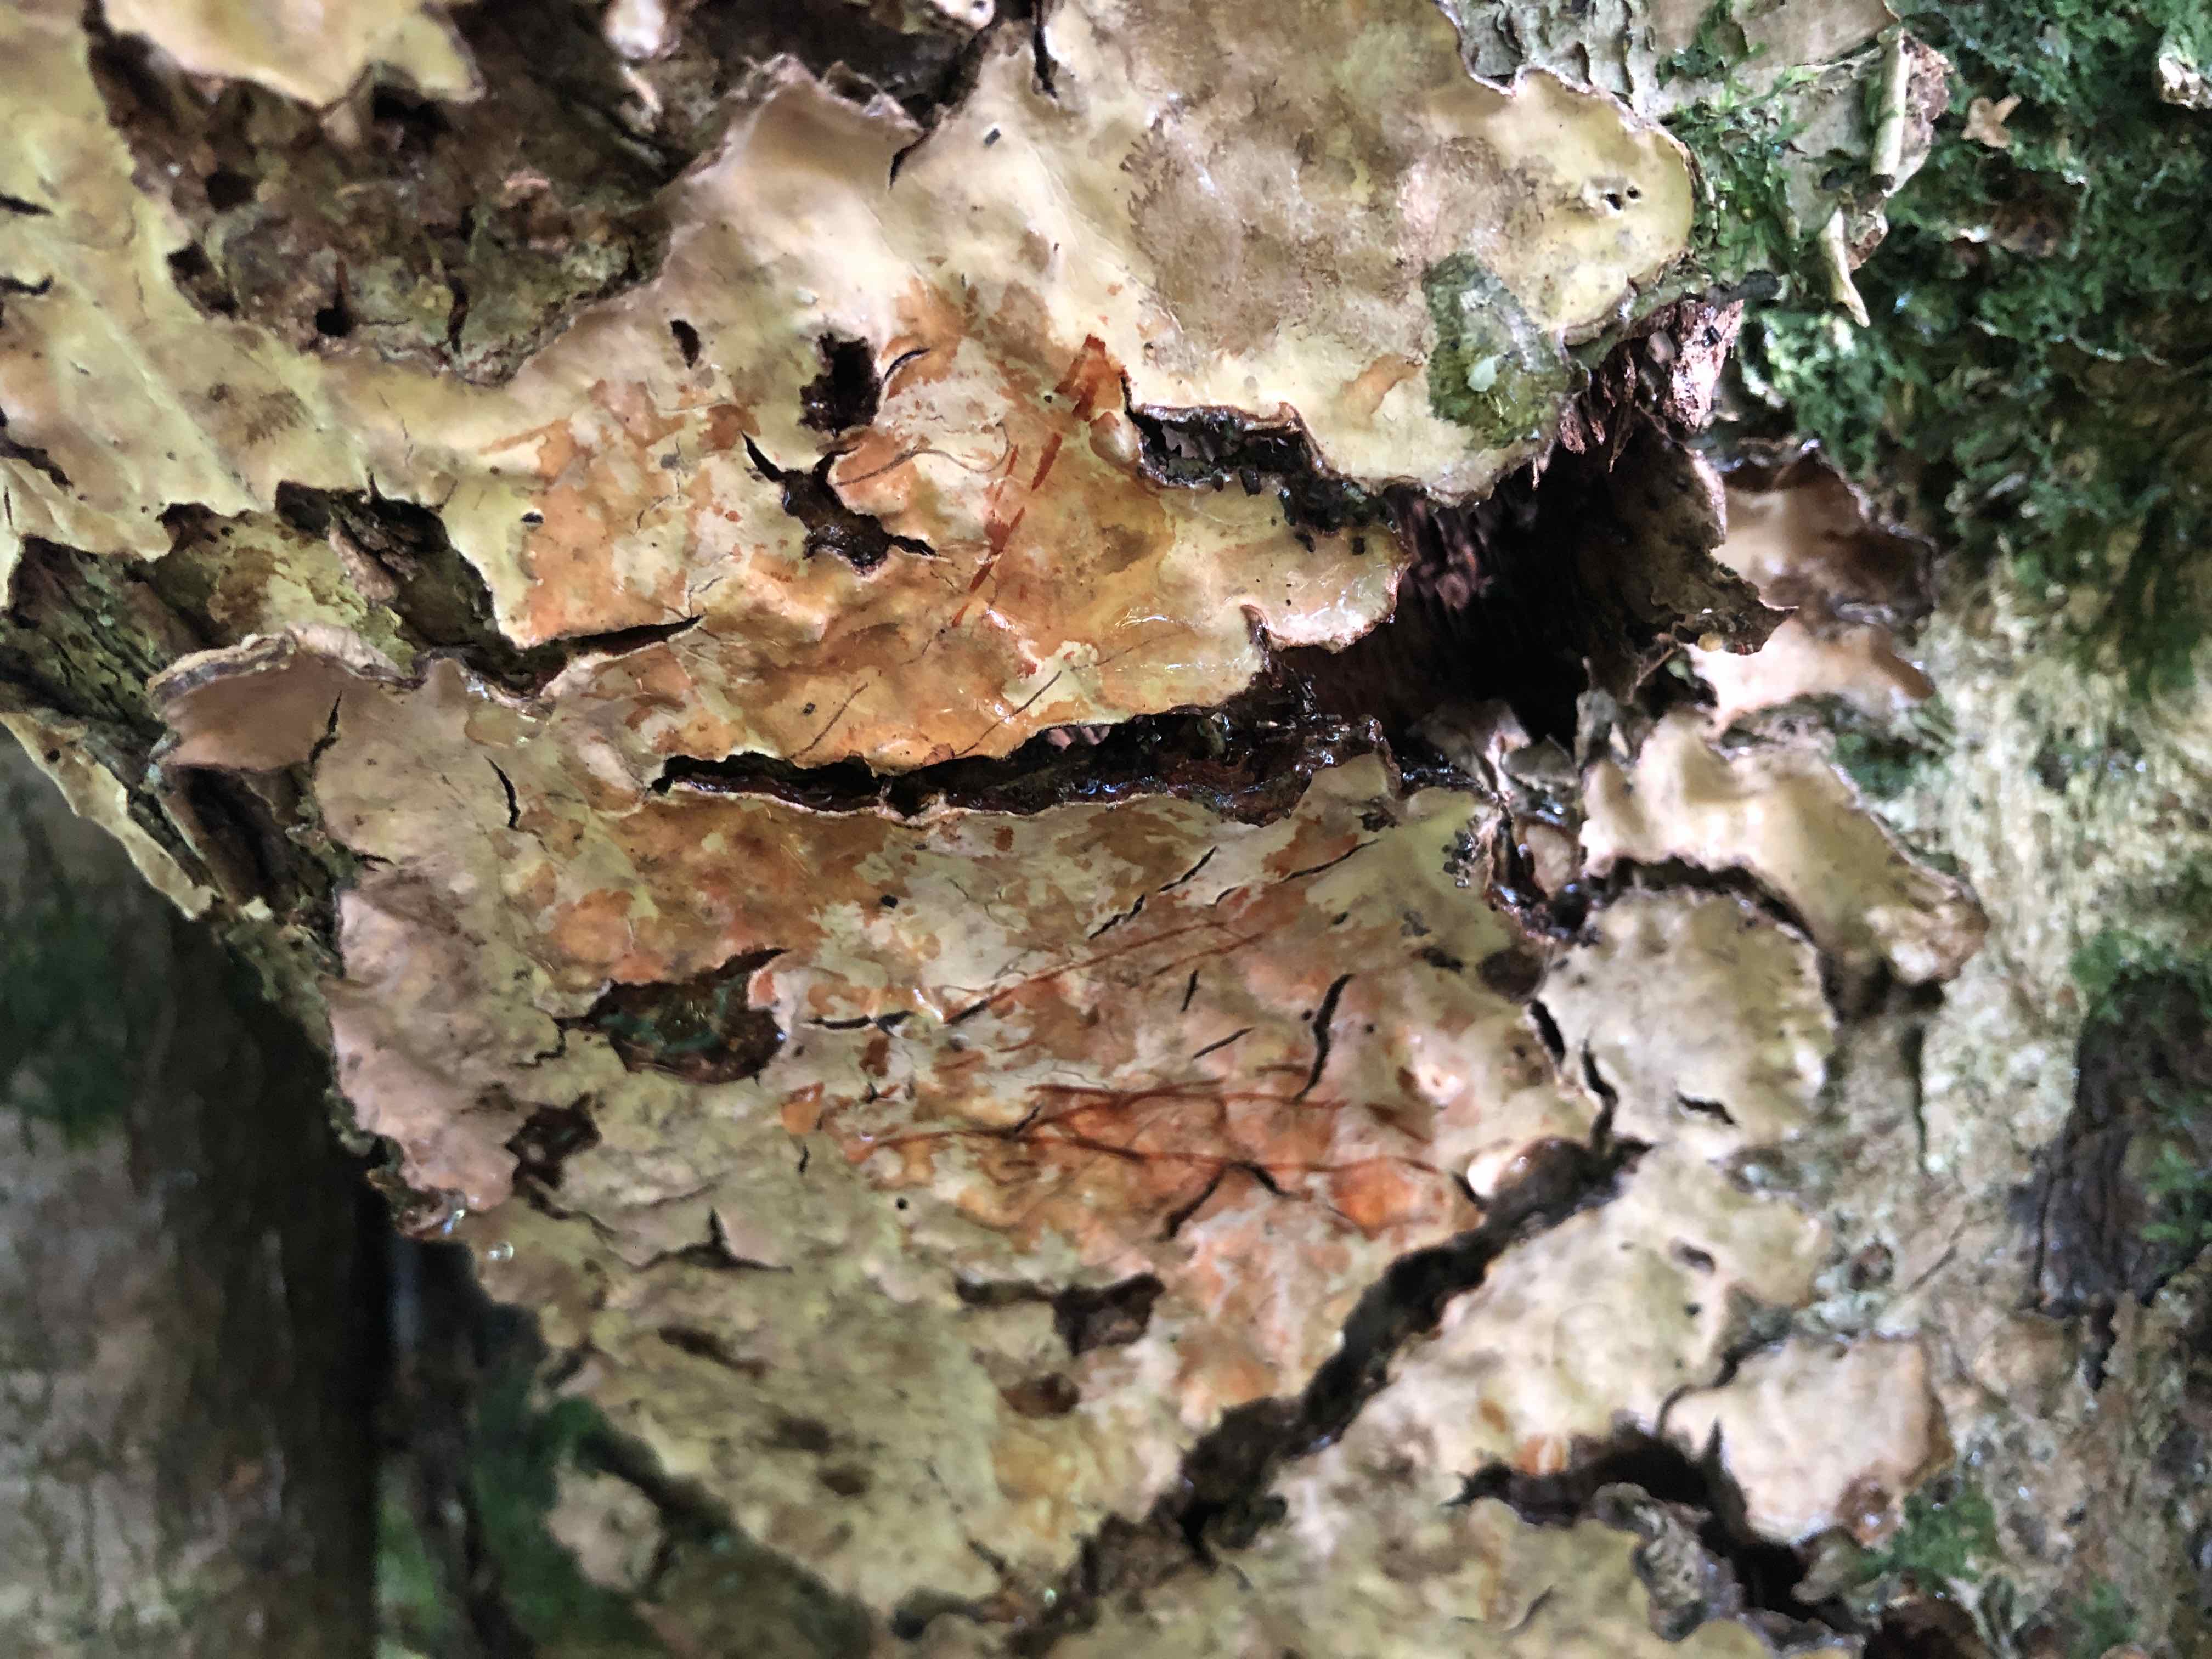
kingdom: Fungi
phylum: Basidiomycota
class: Agaricomycetes
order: Russulales
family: Stereaceae
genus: Stereum
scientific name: Stereum rugosum
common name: rynket lædersvamp
